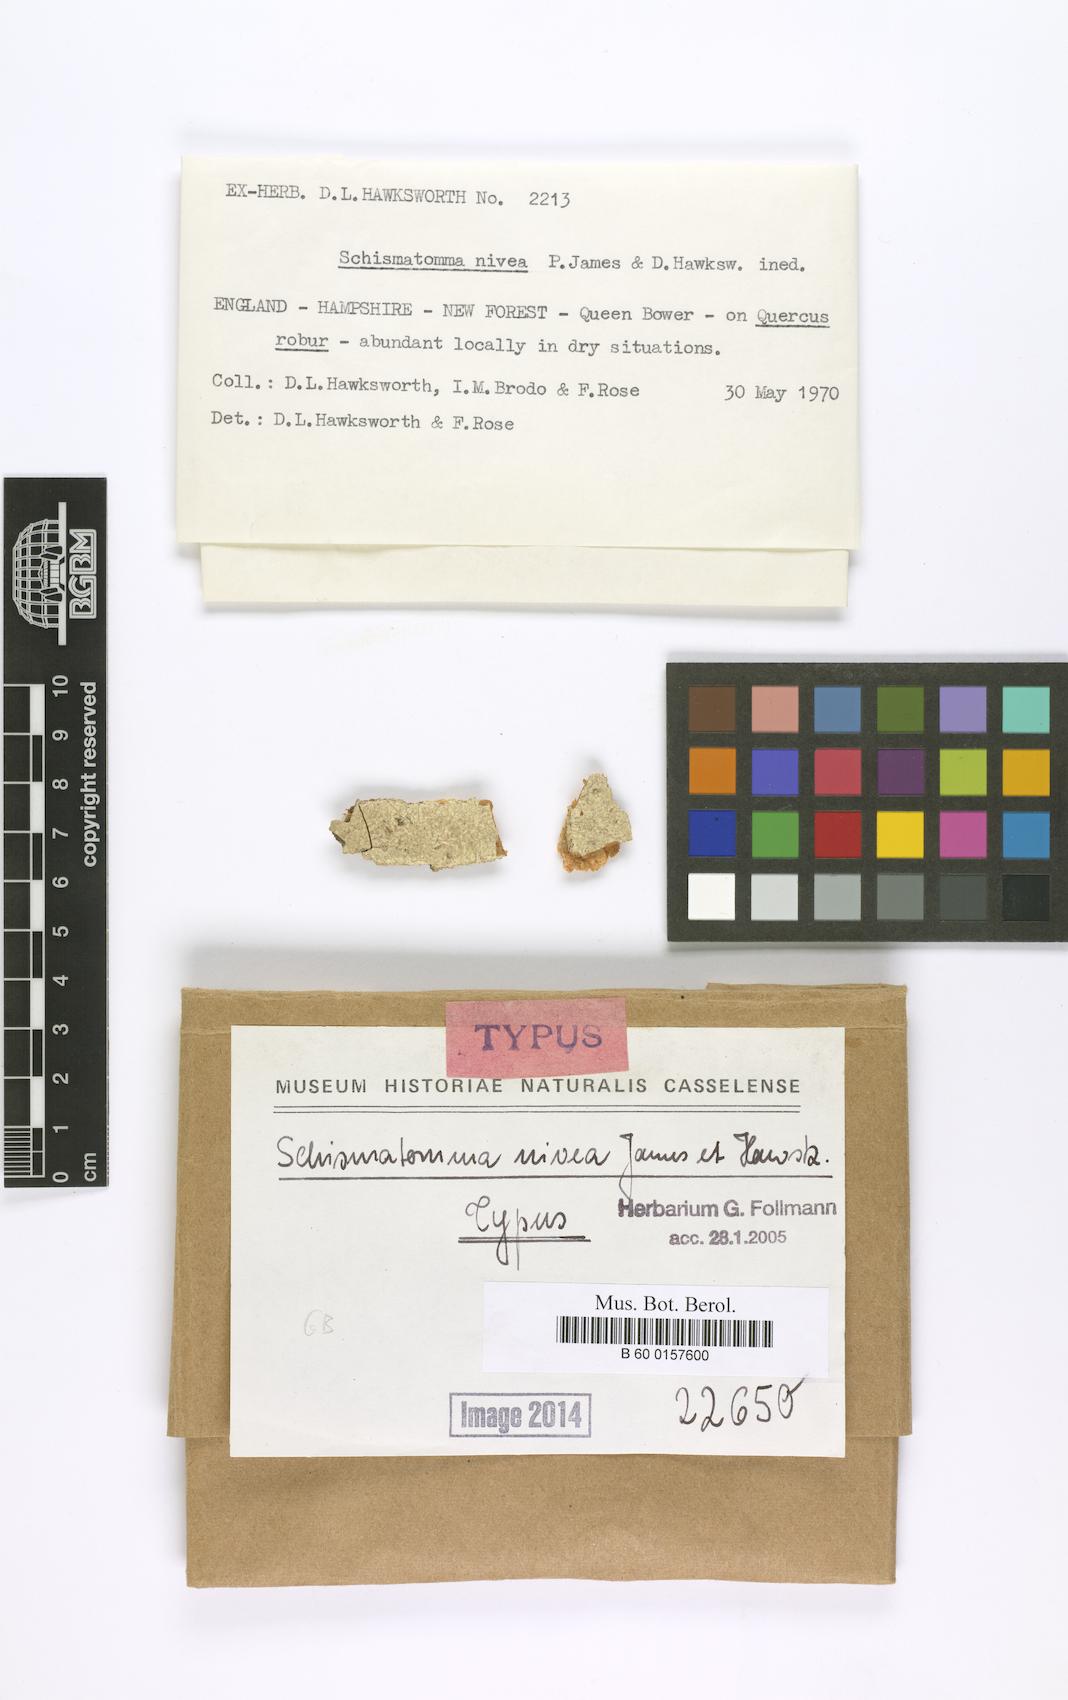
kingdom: Fungi
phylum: Ascomycota
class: Arthoniomycetes
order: Arthoniales
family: Arthoniaceae
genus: Snippocia
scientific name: Snippocia nivea
